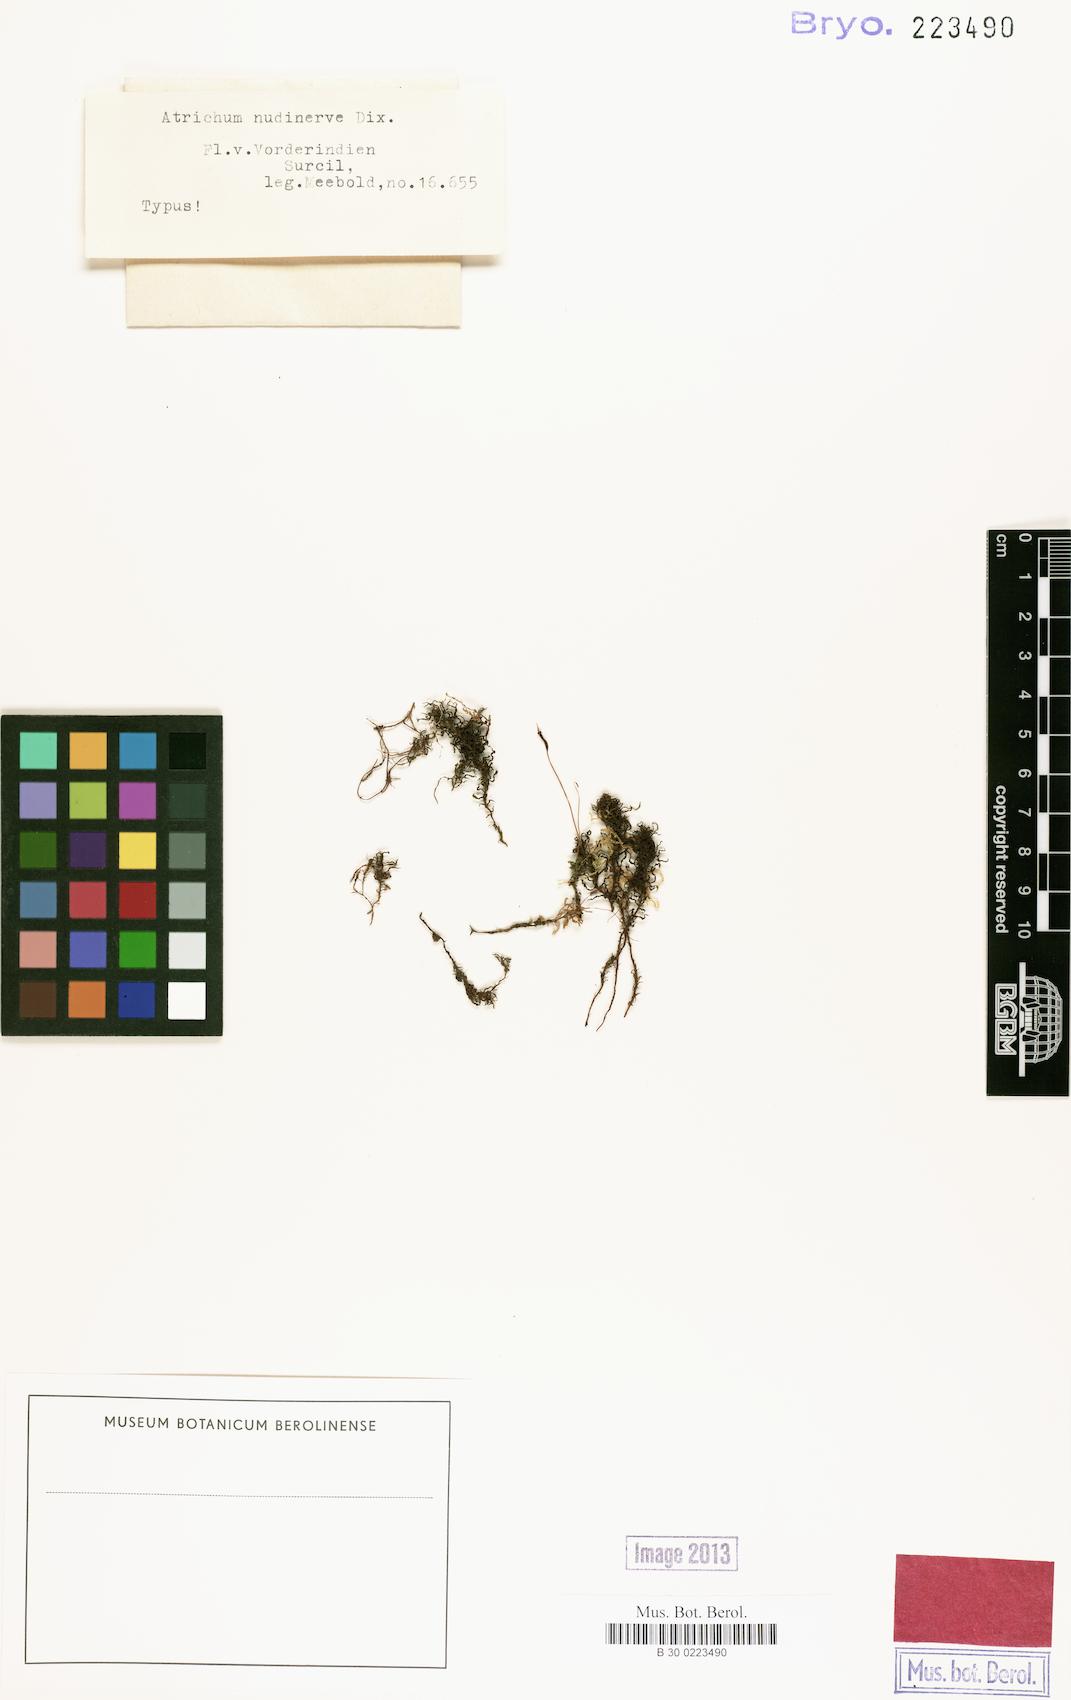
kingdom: Plantae
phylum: Bryophyta
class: Polytrichopsida
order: Polytrichales
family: Polytrichaceae
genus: Atrichum
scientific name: Atrichum
